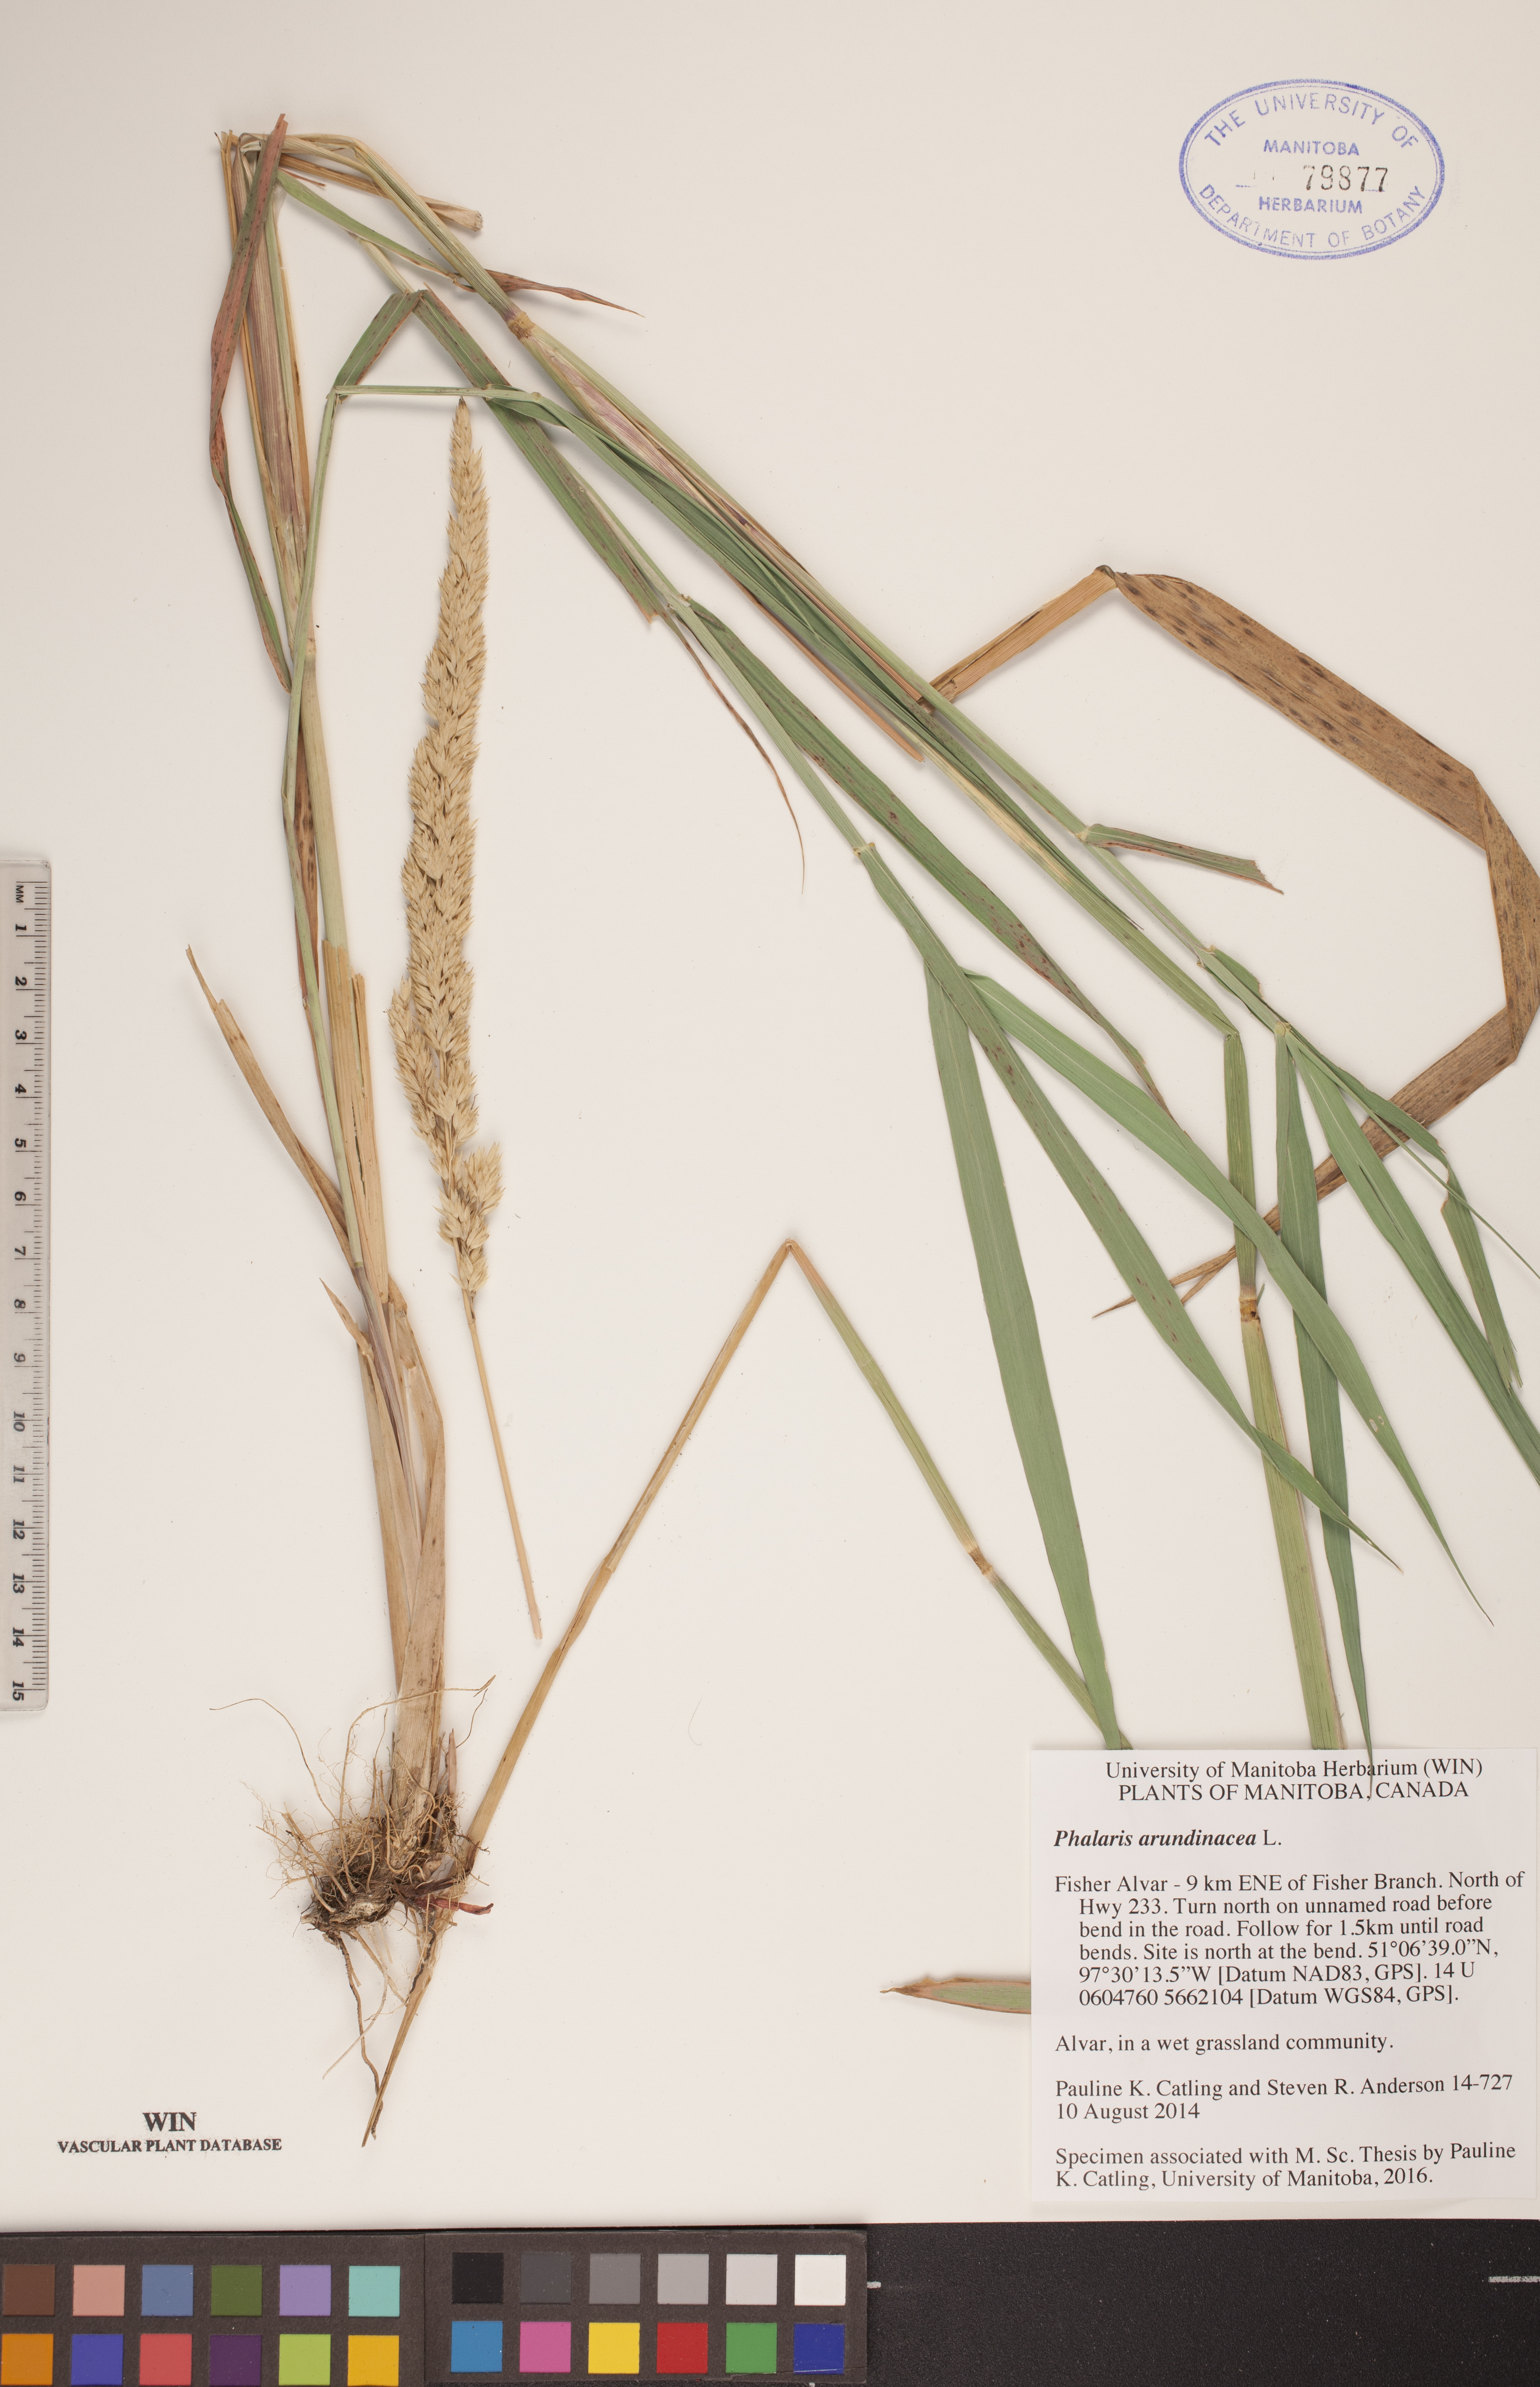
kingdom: Plantae
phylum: Tracheophyta
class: Liliopsida
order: Poales
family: Poaceae
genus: Phalaris
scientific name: Phalaris arundinacea
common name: Reed canary-grass
